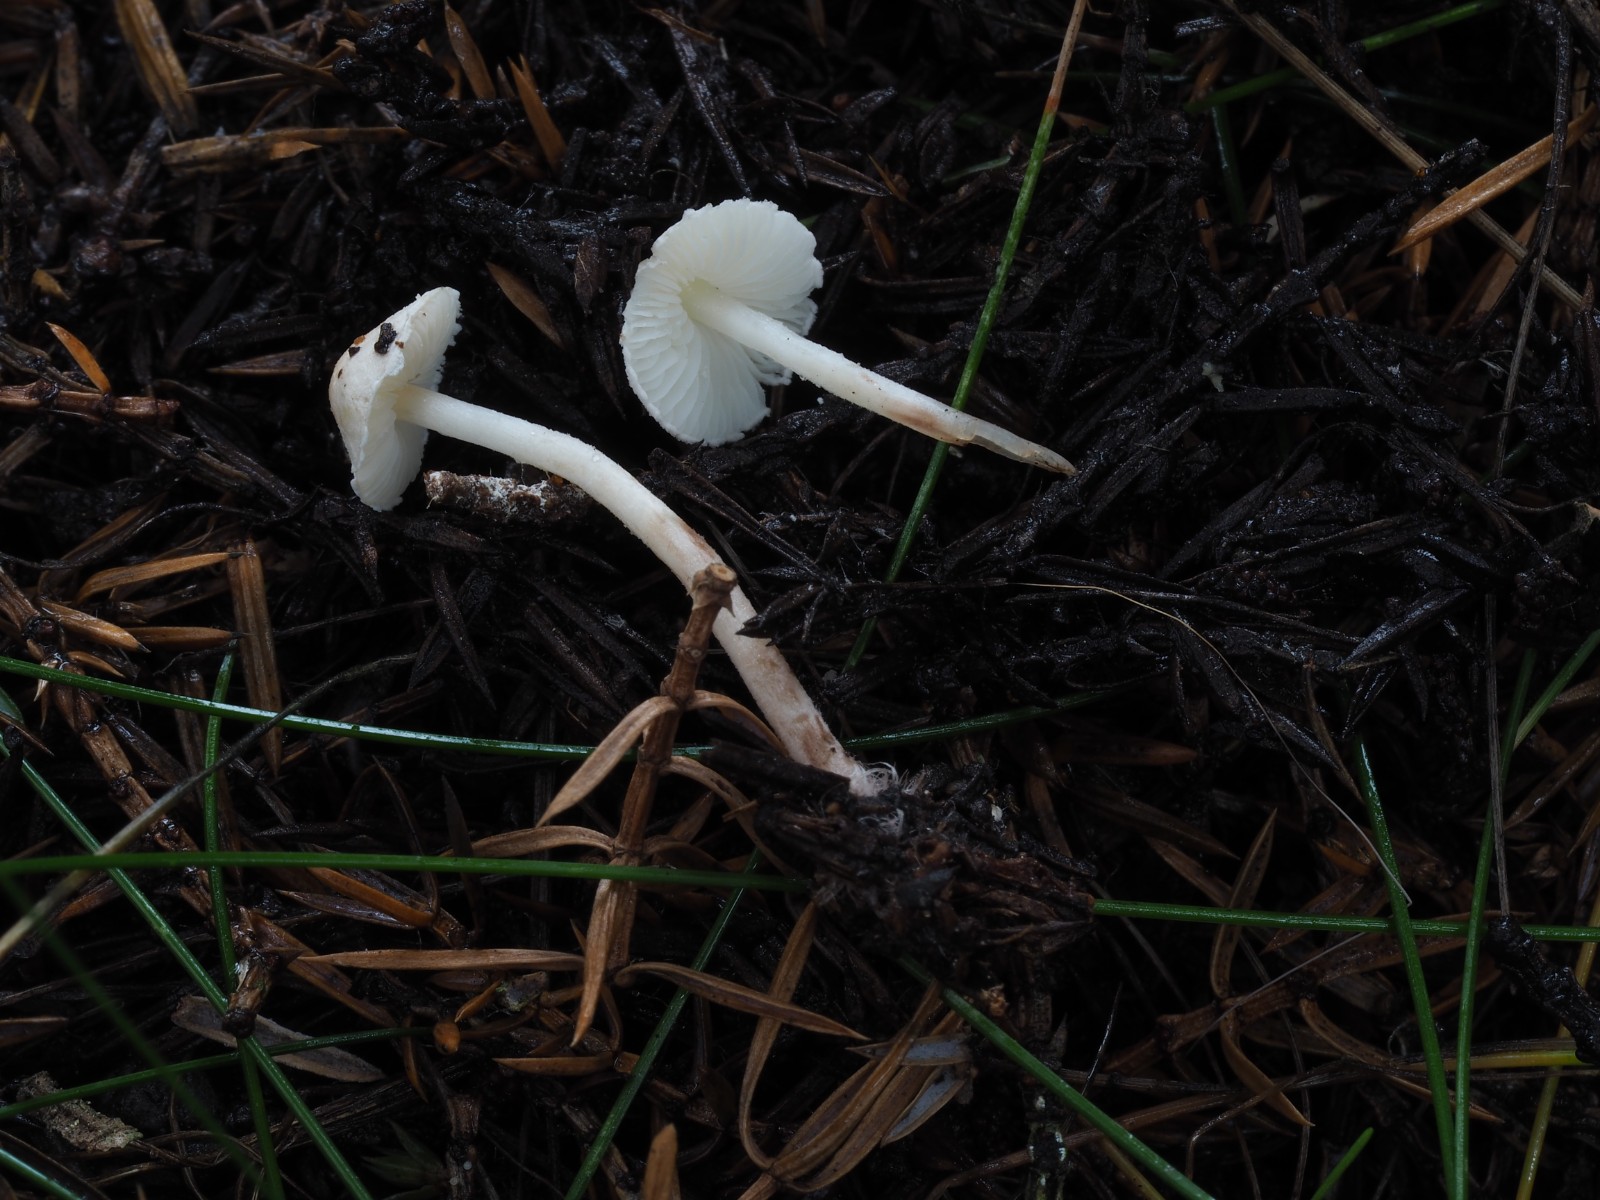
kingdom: Fungi
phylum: Basidiomycota
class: Agaricomycetes
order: Agaricales
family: Agaricaceae
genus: Cystolepiota
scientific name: Cystolepiota seminuda
